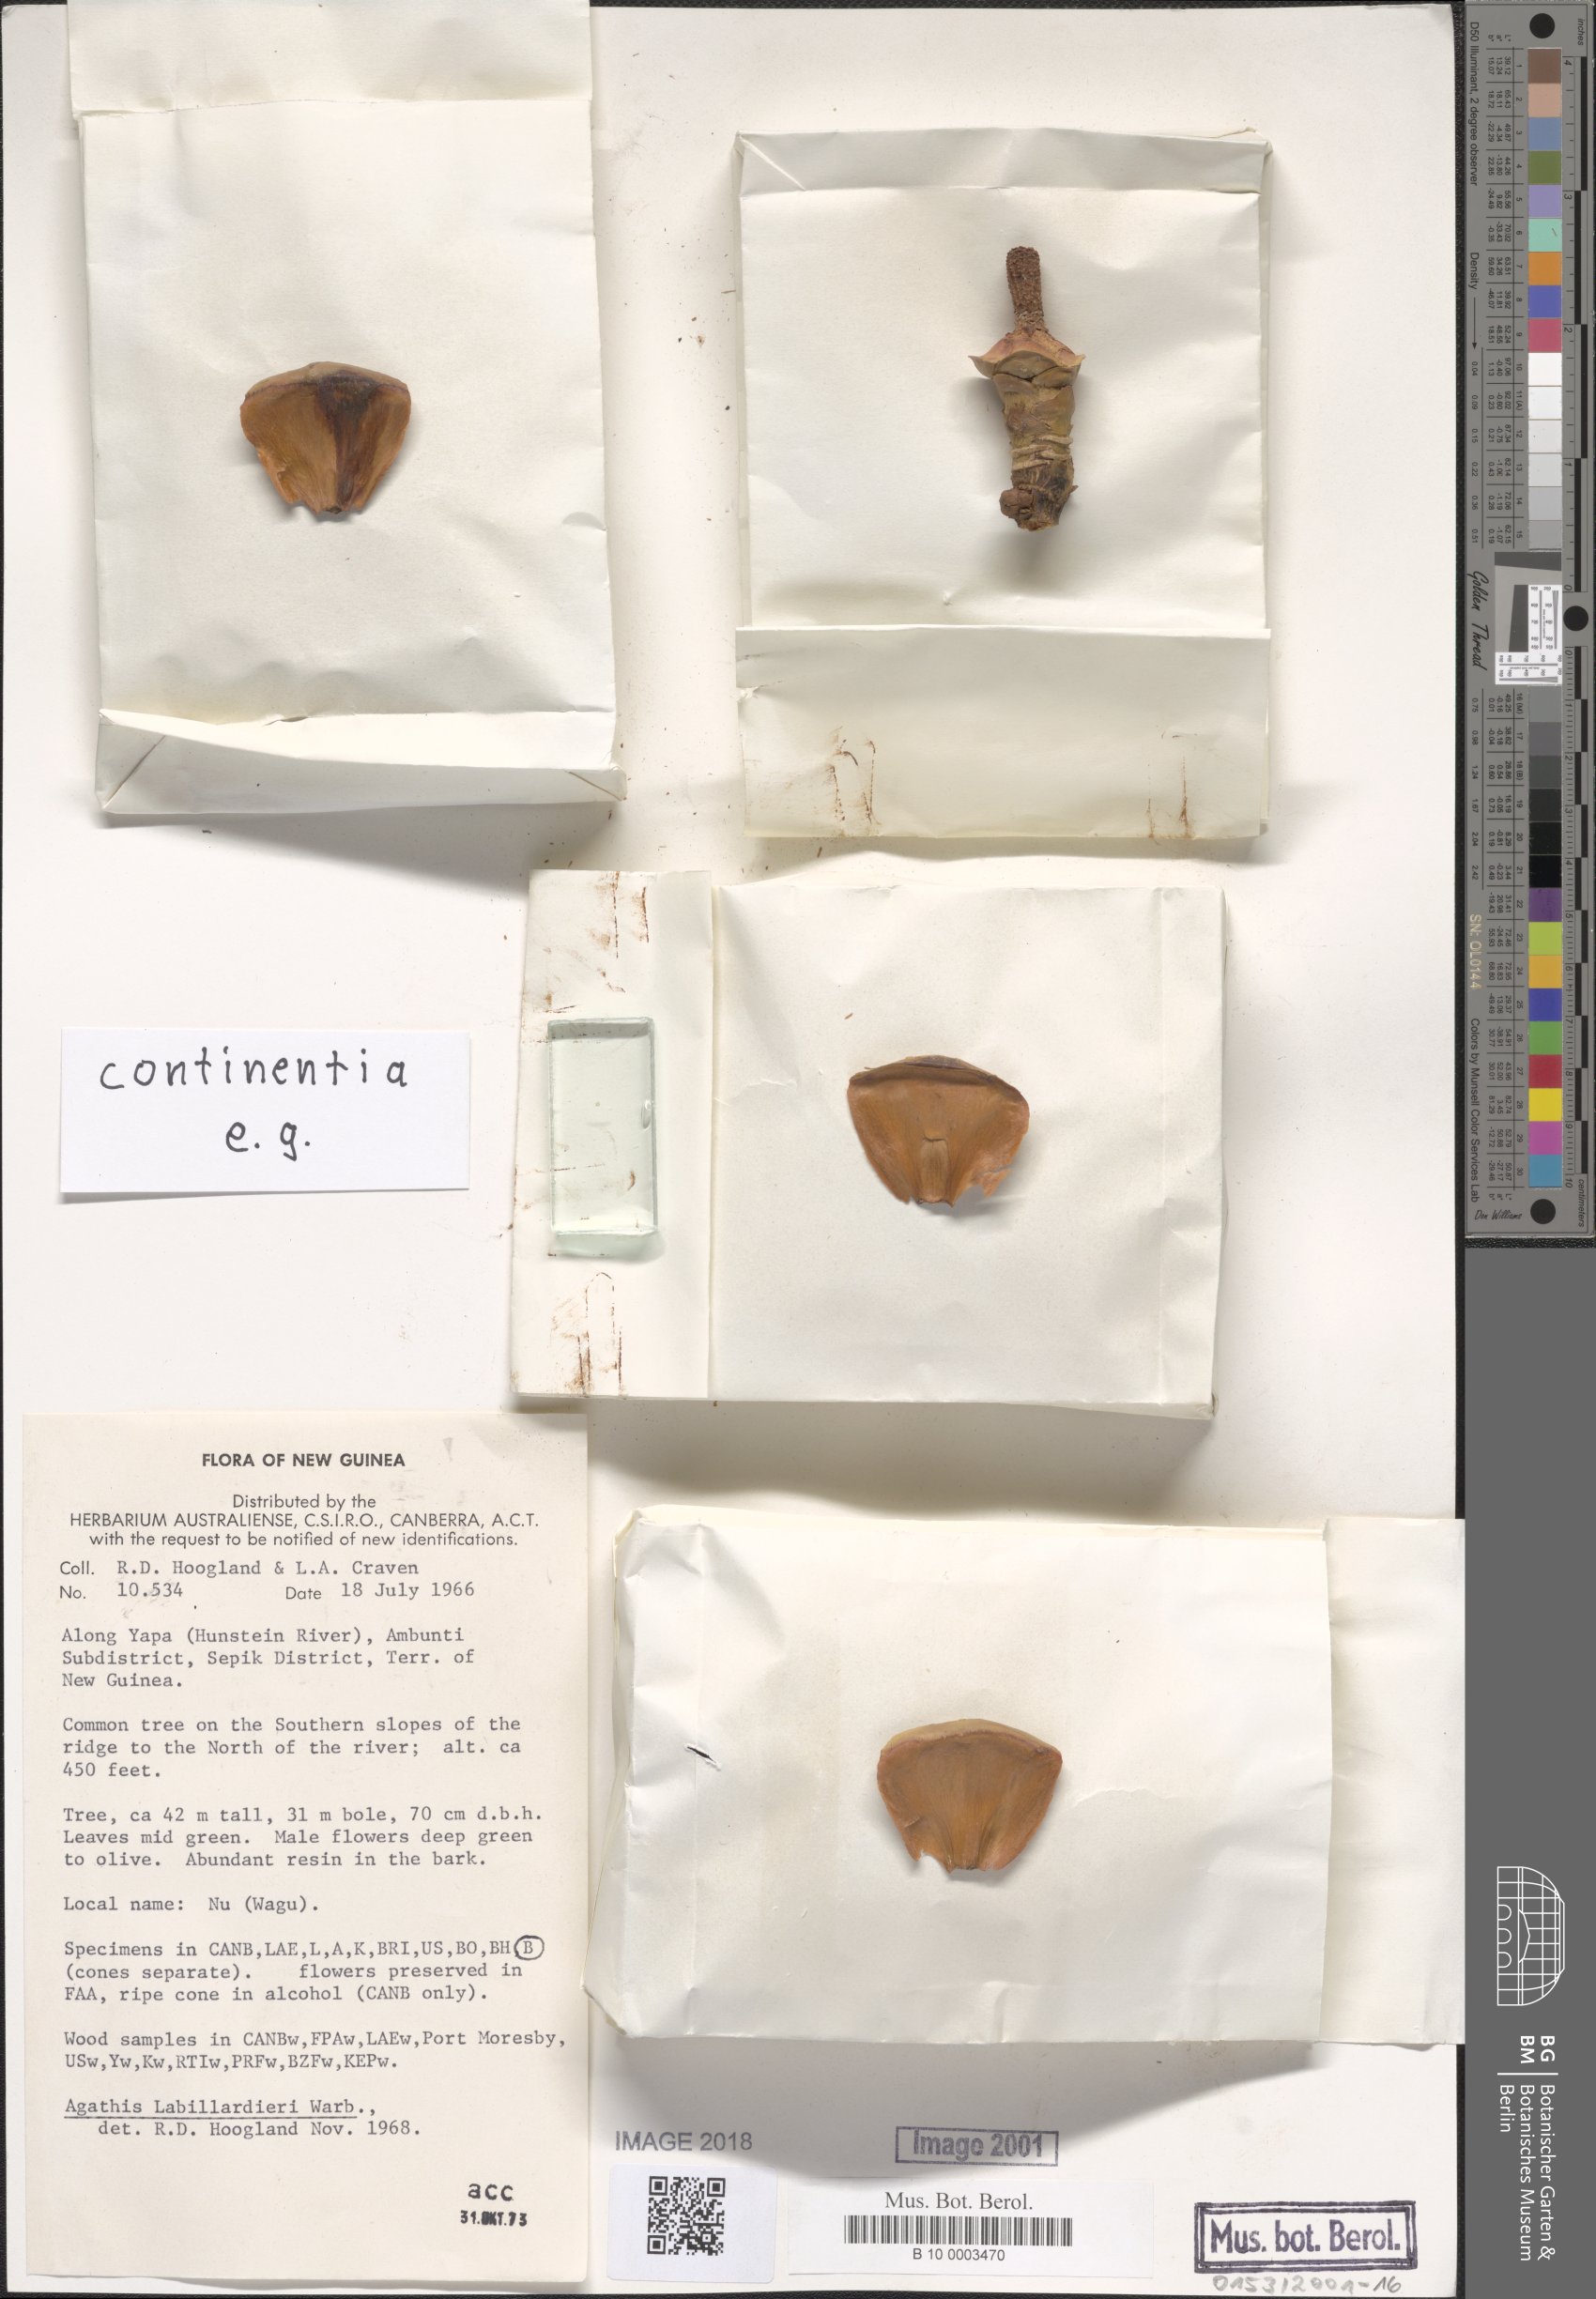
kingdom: Plantae
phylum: Tracheophyta
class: Pinopsida
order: Pinales
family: Araucariaceae
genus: Agathis
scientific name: Agathis labillardierei
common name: New guinea kauri
